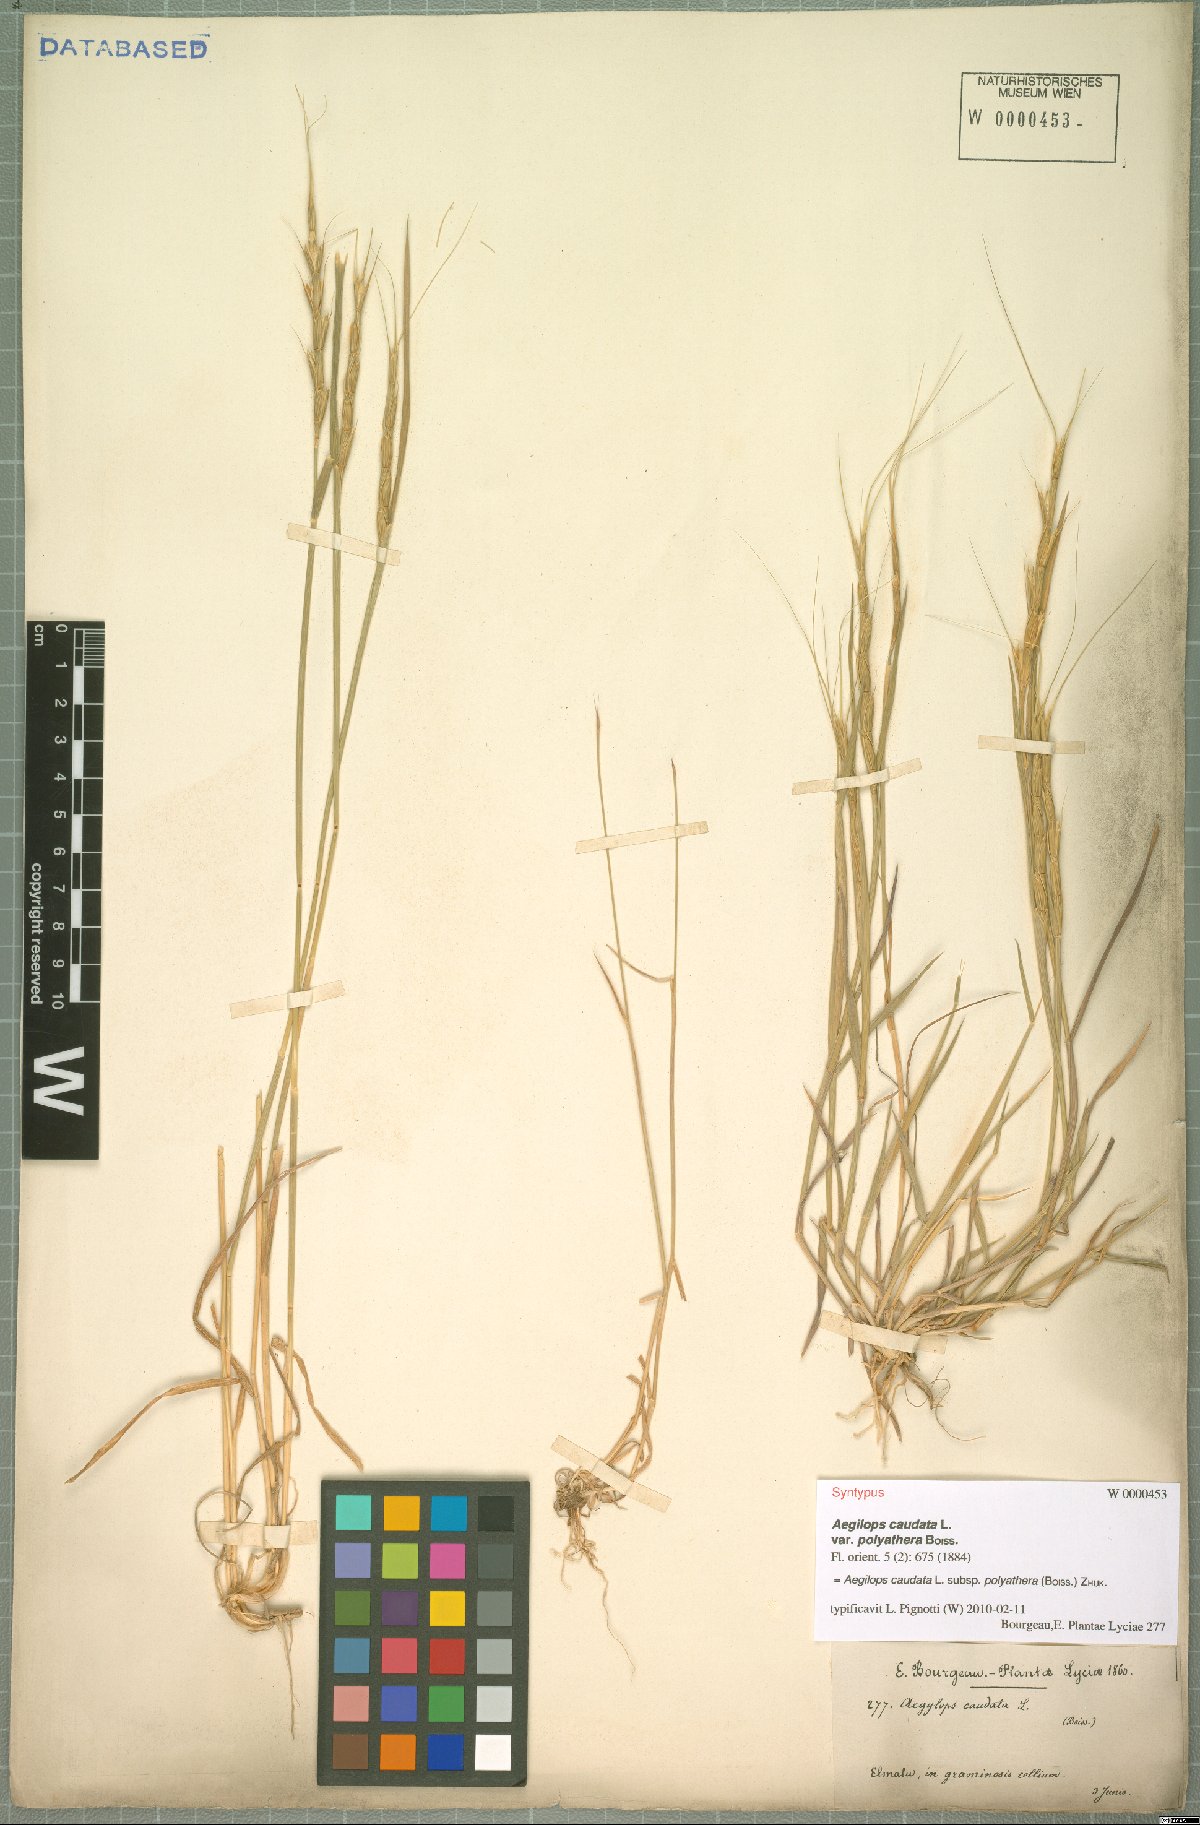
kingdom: Plantae
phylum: Tracheophyta
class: Liliopsida
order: Poales
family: Poaceae
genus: Aegilops
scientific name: Aegilops caudata
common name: Cretan hard-grass
